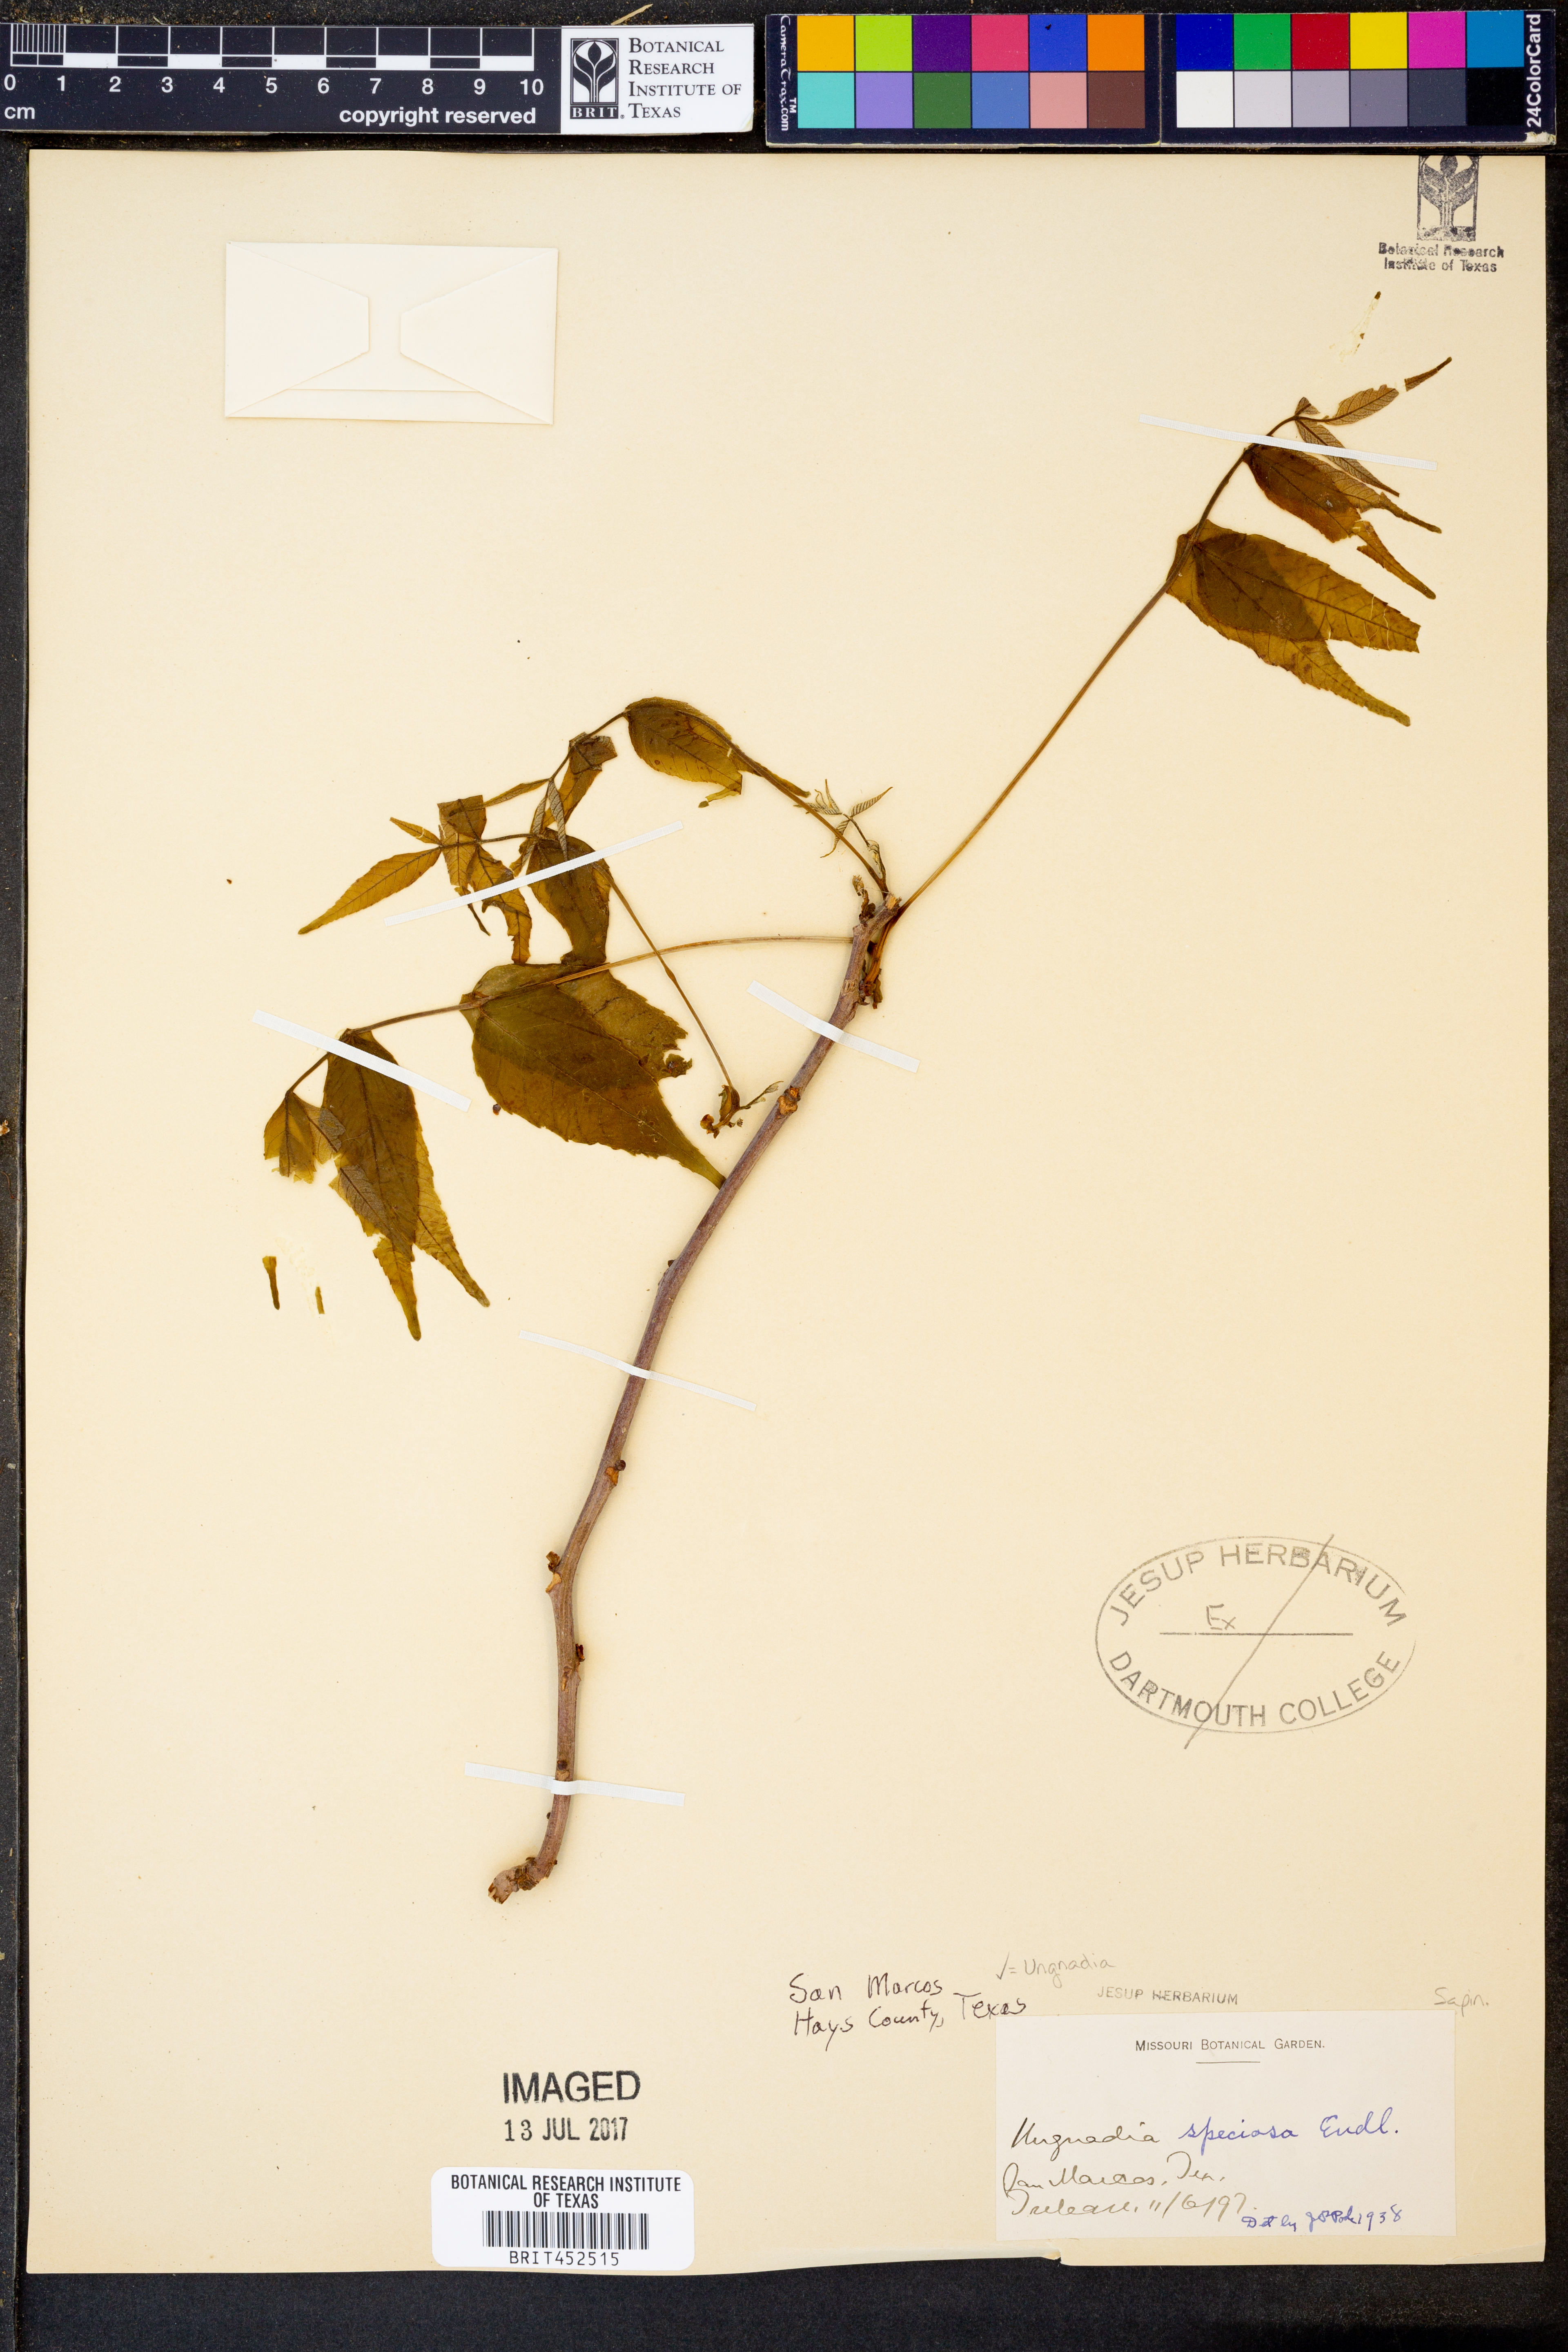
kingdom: Plantae
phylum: Tracheophyta
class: Magnoliopsida
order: Sapindales
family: Sapindaceae
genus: Ungnadia
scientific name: Ungnadia speciosa
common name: Texas-buckeye
